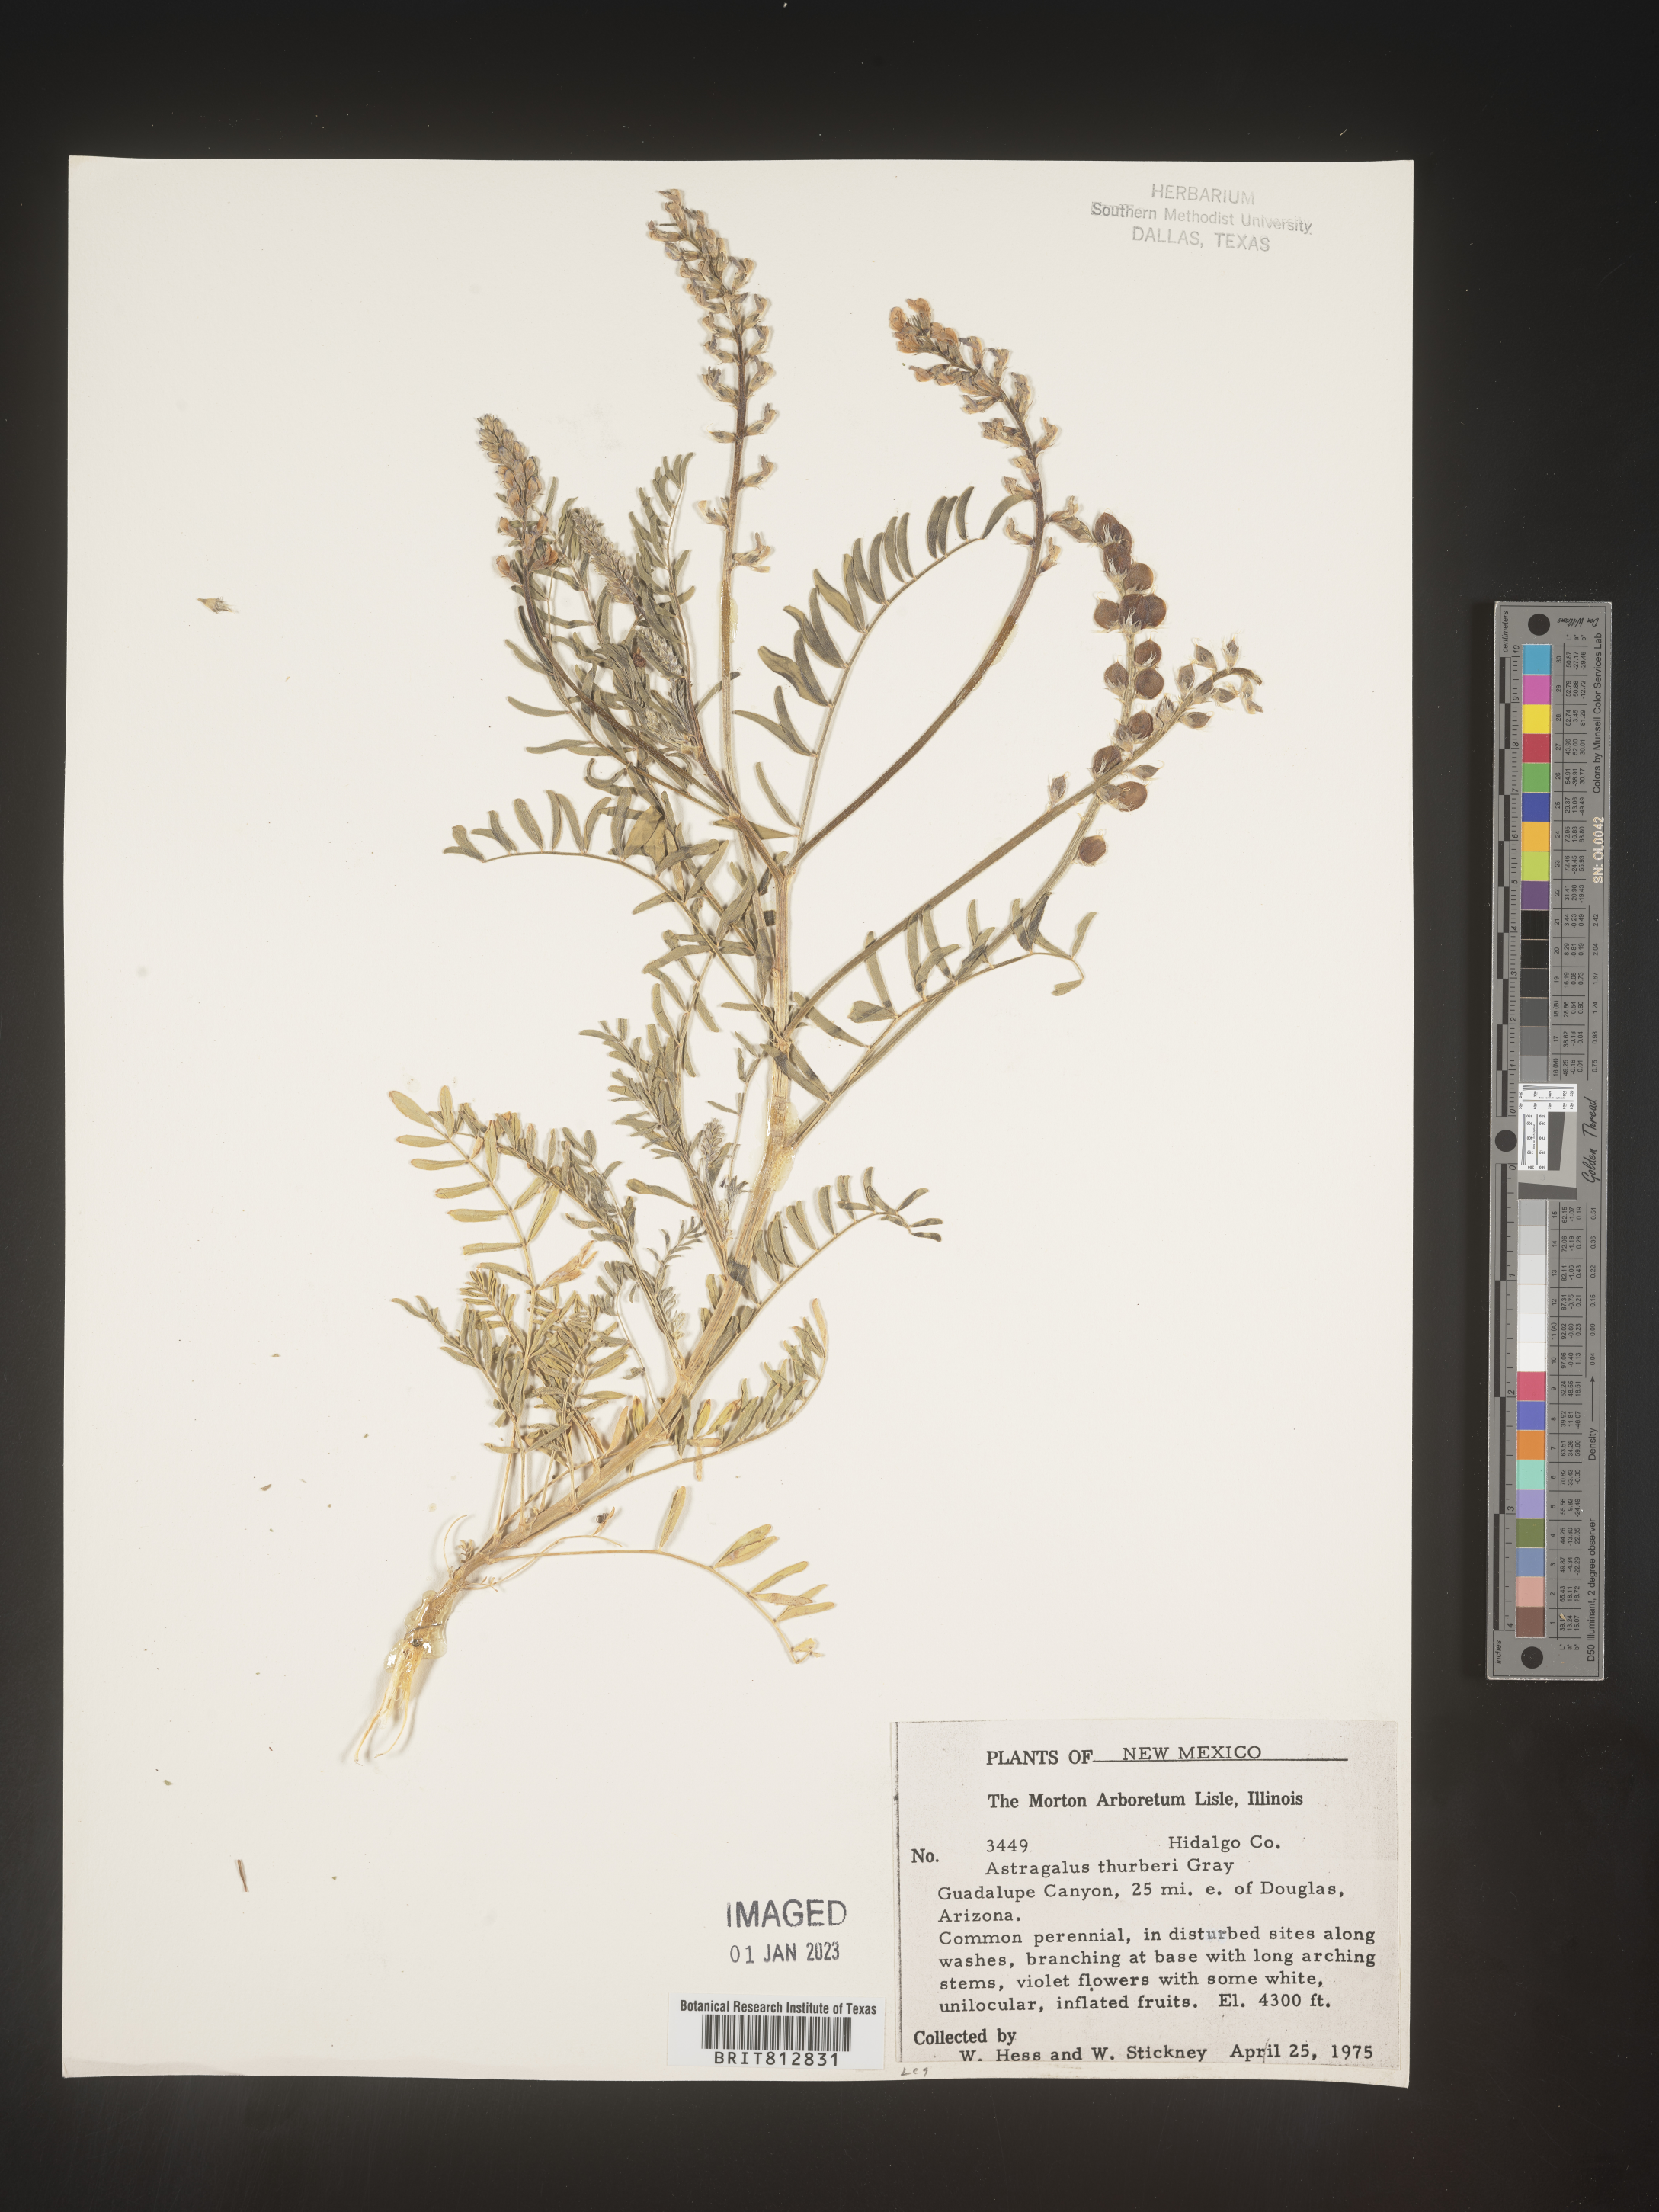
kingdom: Plantae
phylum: Tracheophyta
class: Magnoliopsida
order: Fabales
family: Fabaceae
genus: Astragalus
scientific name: Astragalus
